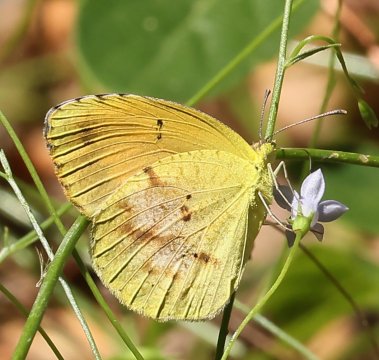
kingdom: Animalia
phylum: Arthropoda
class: Insecta
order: Lepidoptera
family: Pieridae
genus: Abaeis
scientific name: Abaeis nicippe
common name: Sleepy Orange
